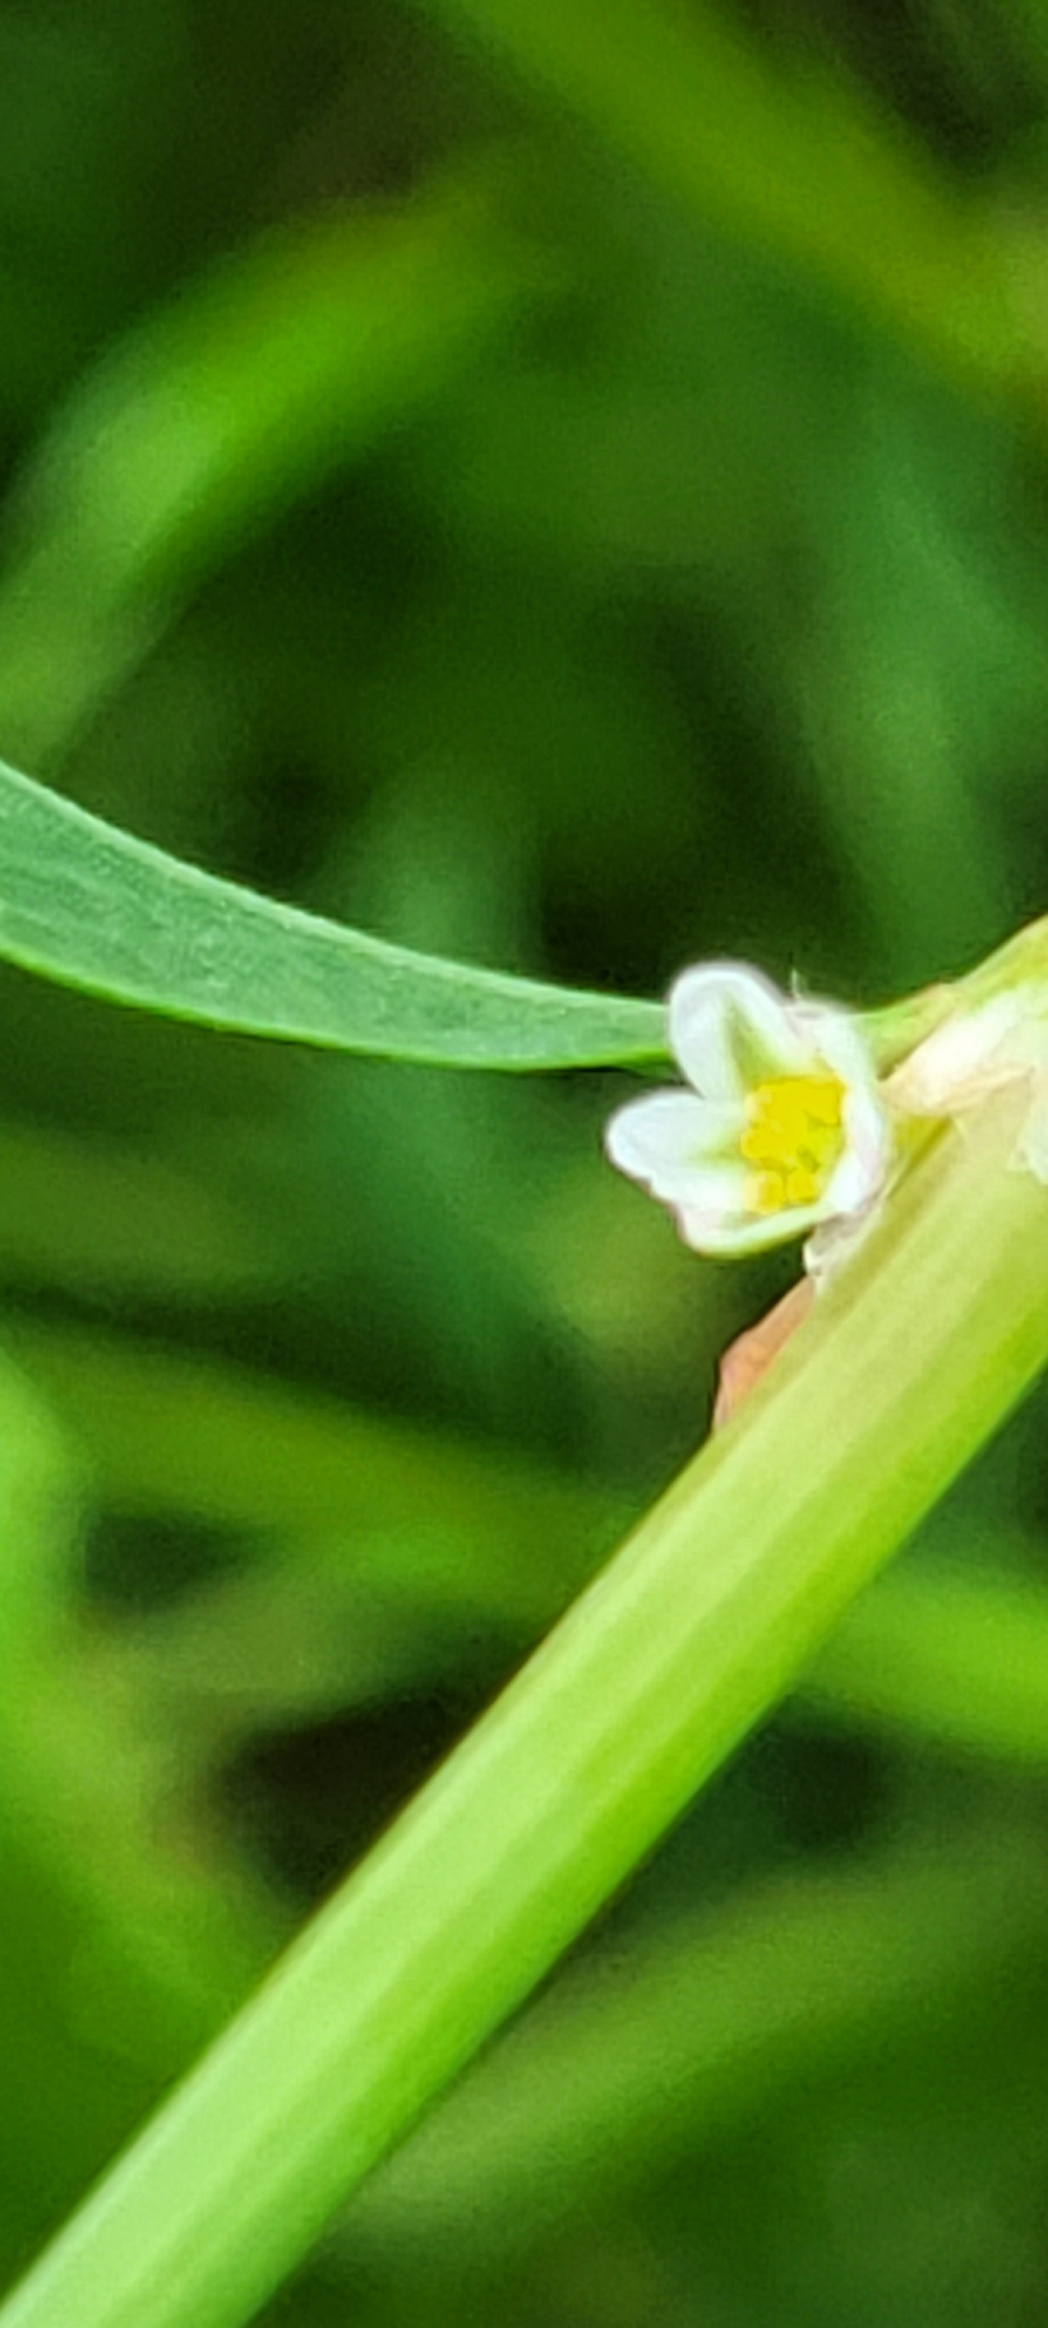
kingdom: Plantae
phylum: Tracheophyta
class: Magnoliopsida
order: Caryophyllales
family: Polygonaceae
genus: Polygonum
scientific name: Polygonum aviculare
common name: Vej-pileurt
